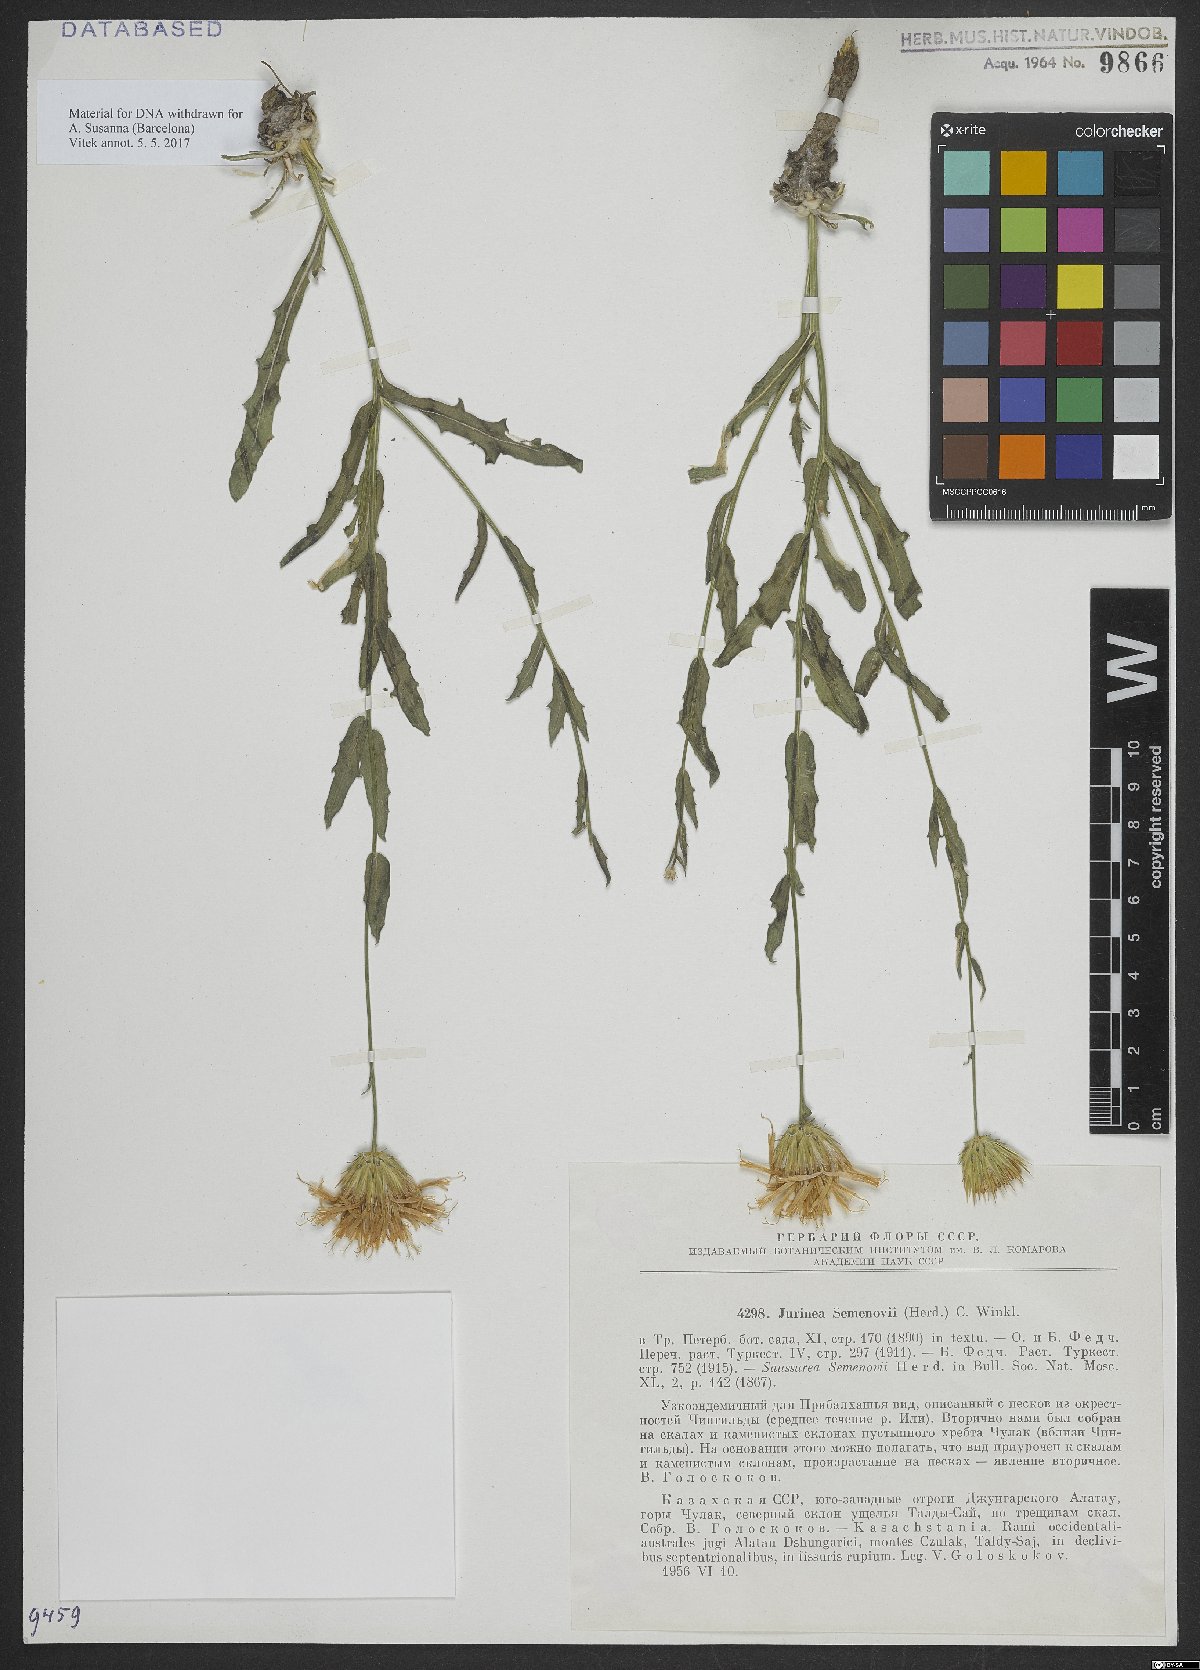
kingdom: Plantae
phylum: Tracheophyta
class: Magnoliopsida
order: Asterales
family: Asteraceae
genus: Jurinea
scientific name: Jurinea semenowii
